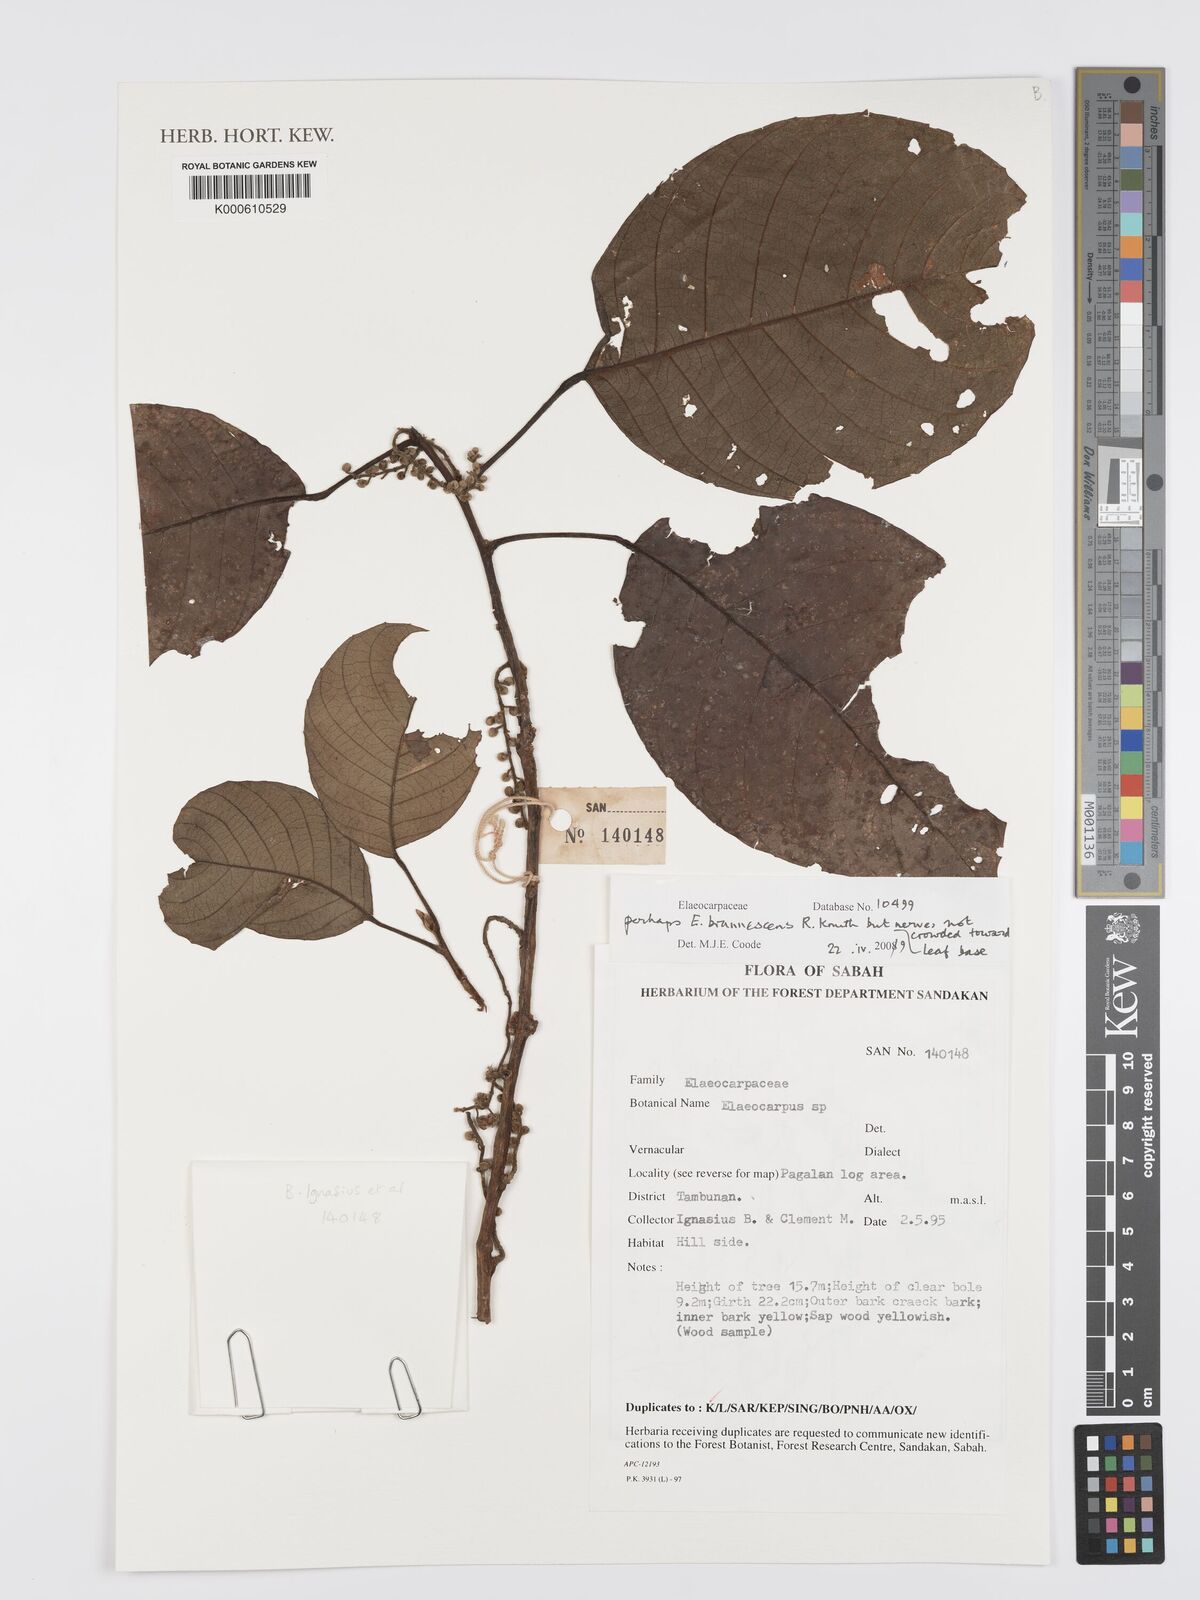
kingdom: Plantae
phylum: Tracheophyta
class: Magnoliopsida
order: Oxalidales
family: Elaeocarpaceae
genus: Elaeocarpus
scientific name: Elaeocarpus
